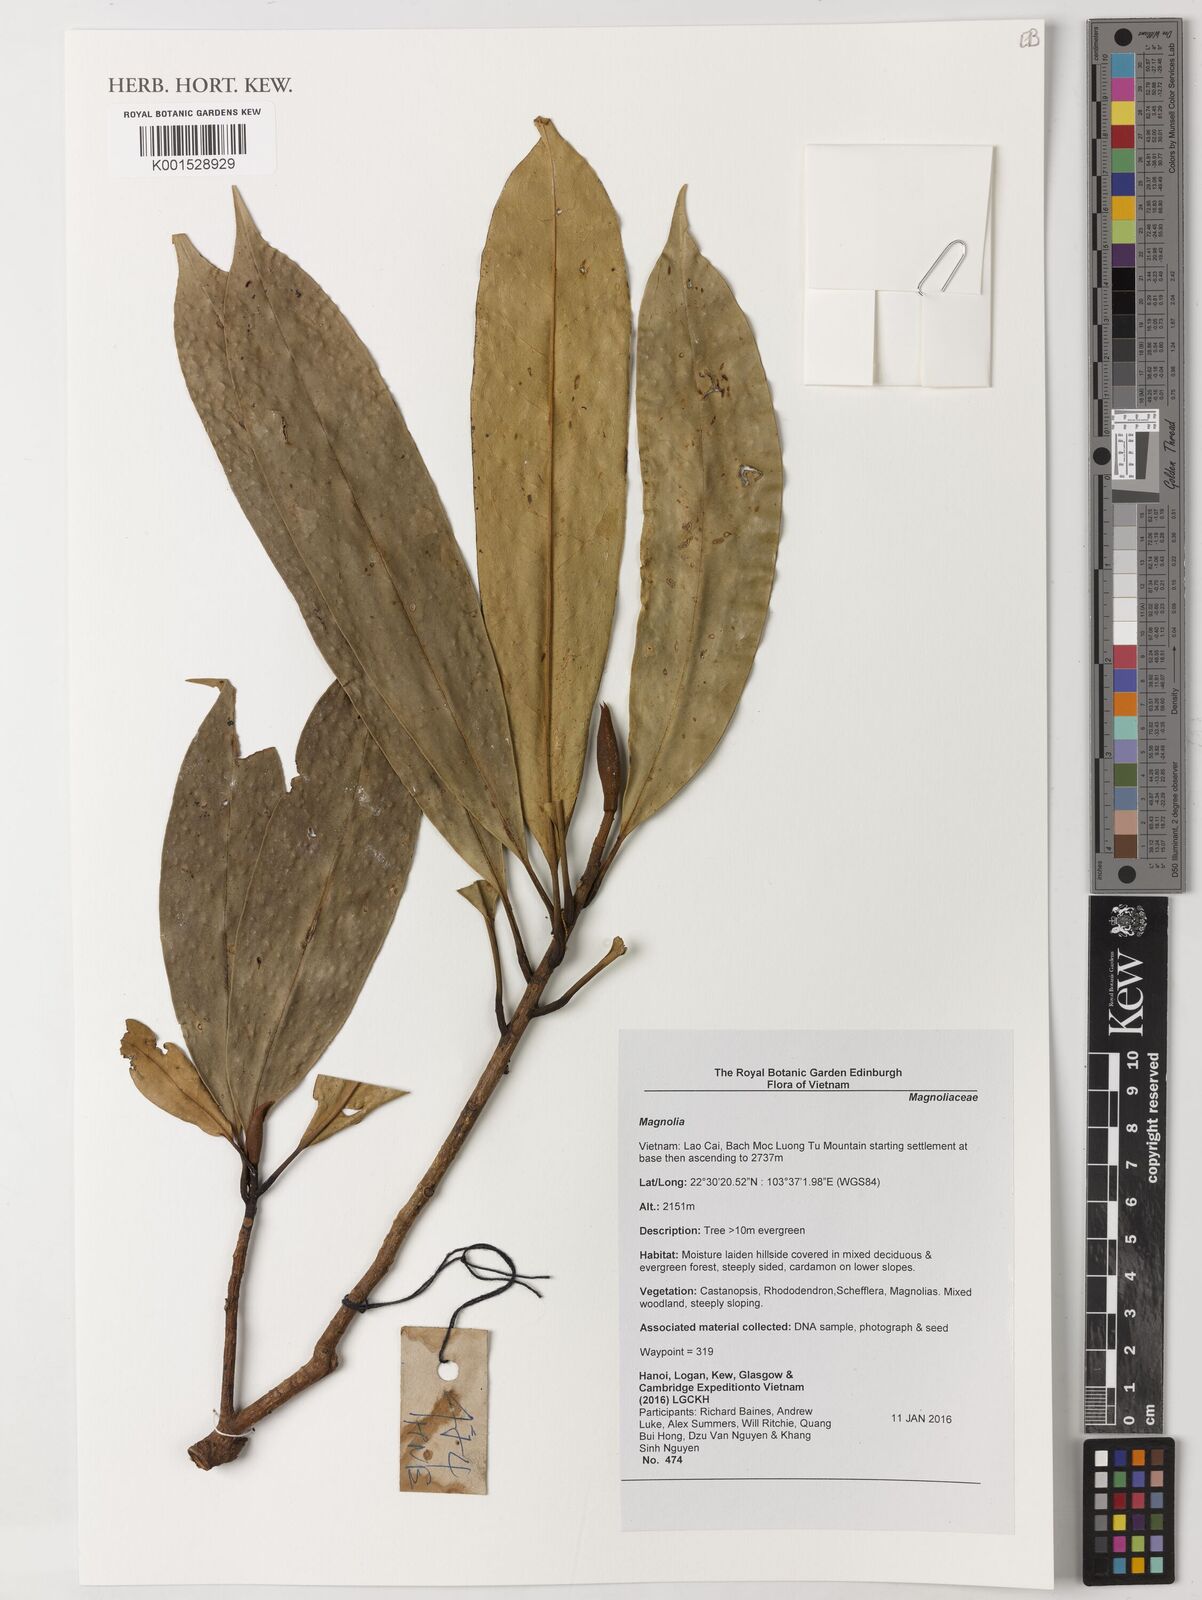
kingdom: Plantae
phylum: Tracheophyta
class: Magnoliopsida
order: Magnoliales
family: Magnoliaceae
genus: Magnolia
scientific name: Magnolia
